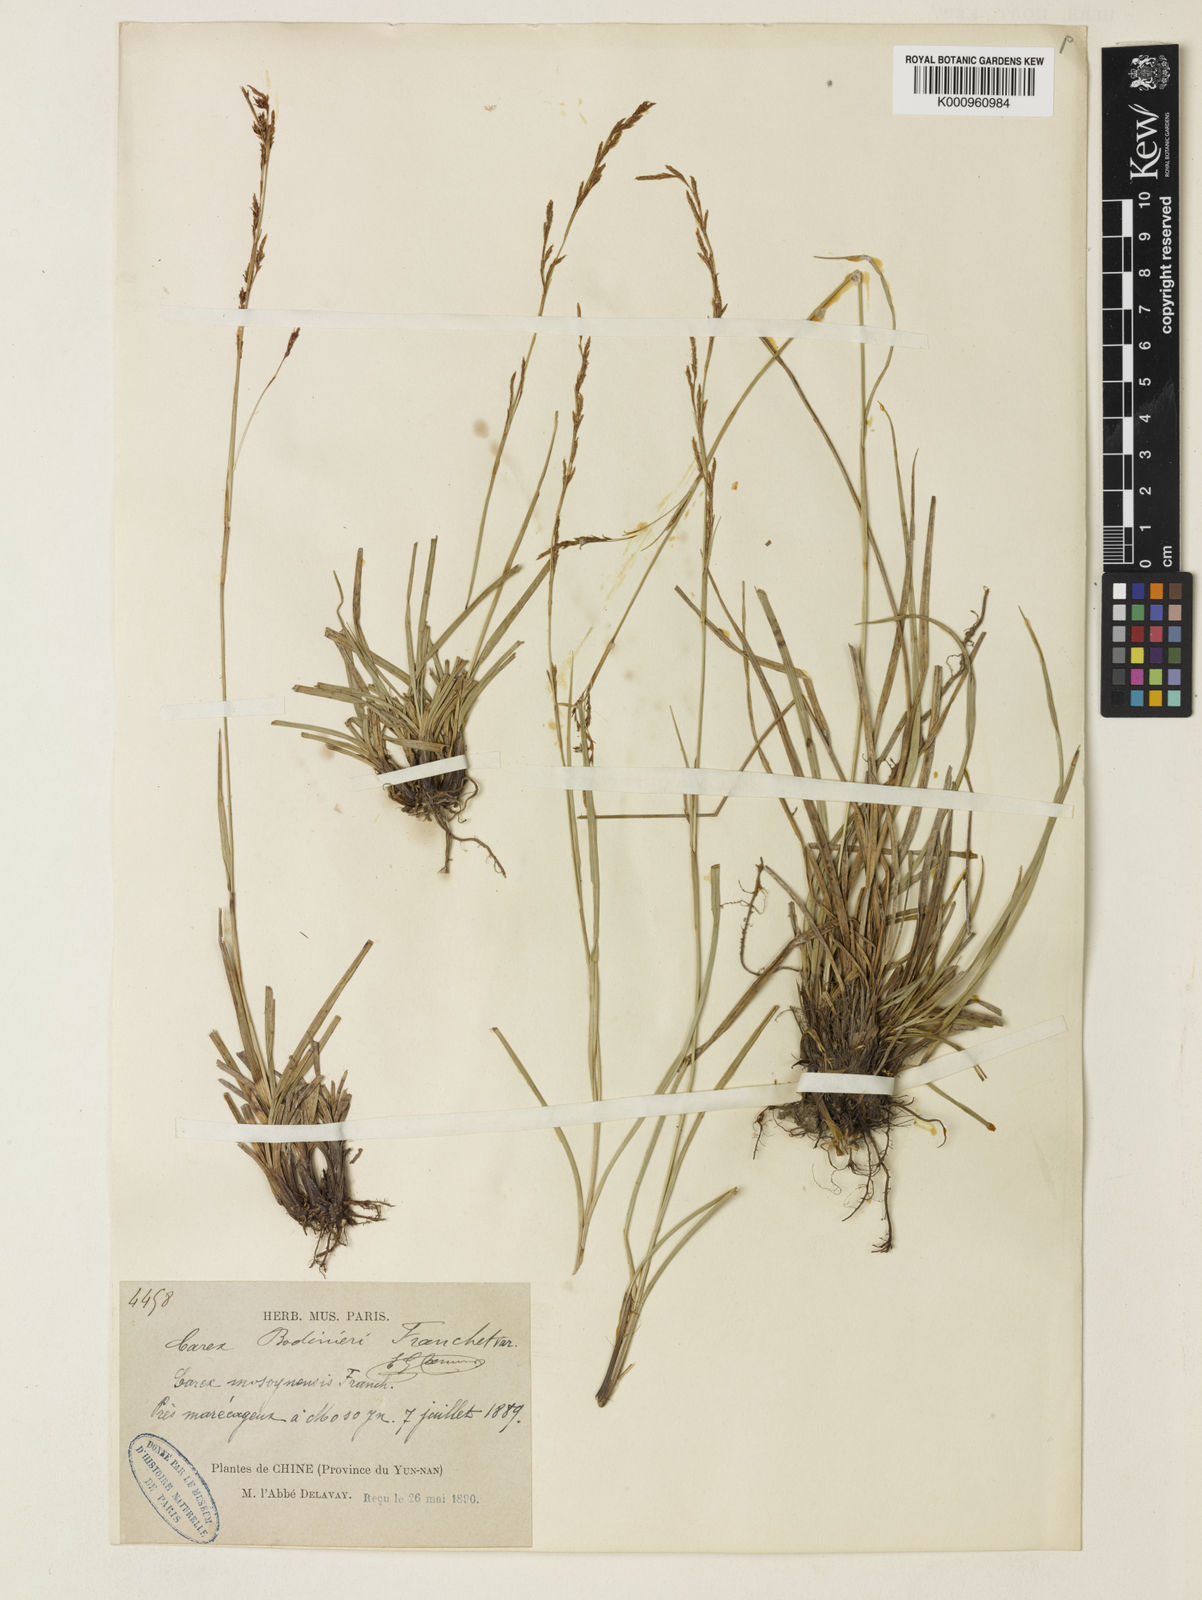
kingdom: Plantae
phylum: Tracheophyta
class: Liliopsida
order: Poales
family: Cyperaceae
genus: Carex
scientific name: Carex brunnea
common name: Greater brown sedge
